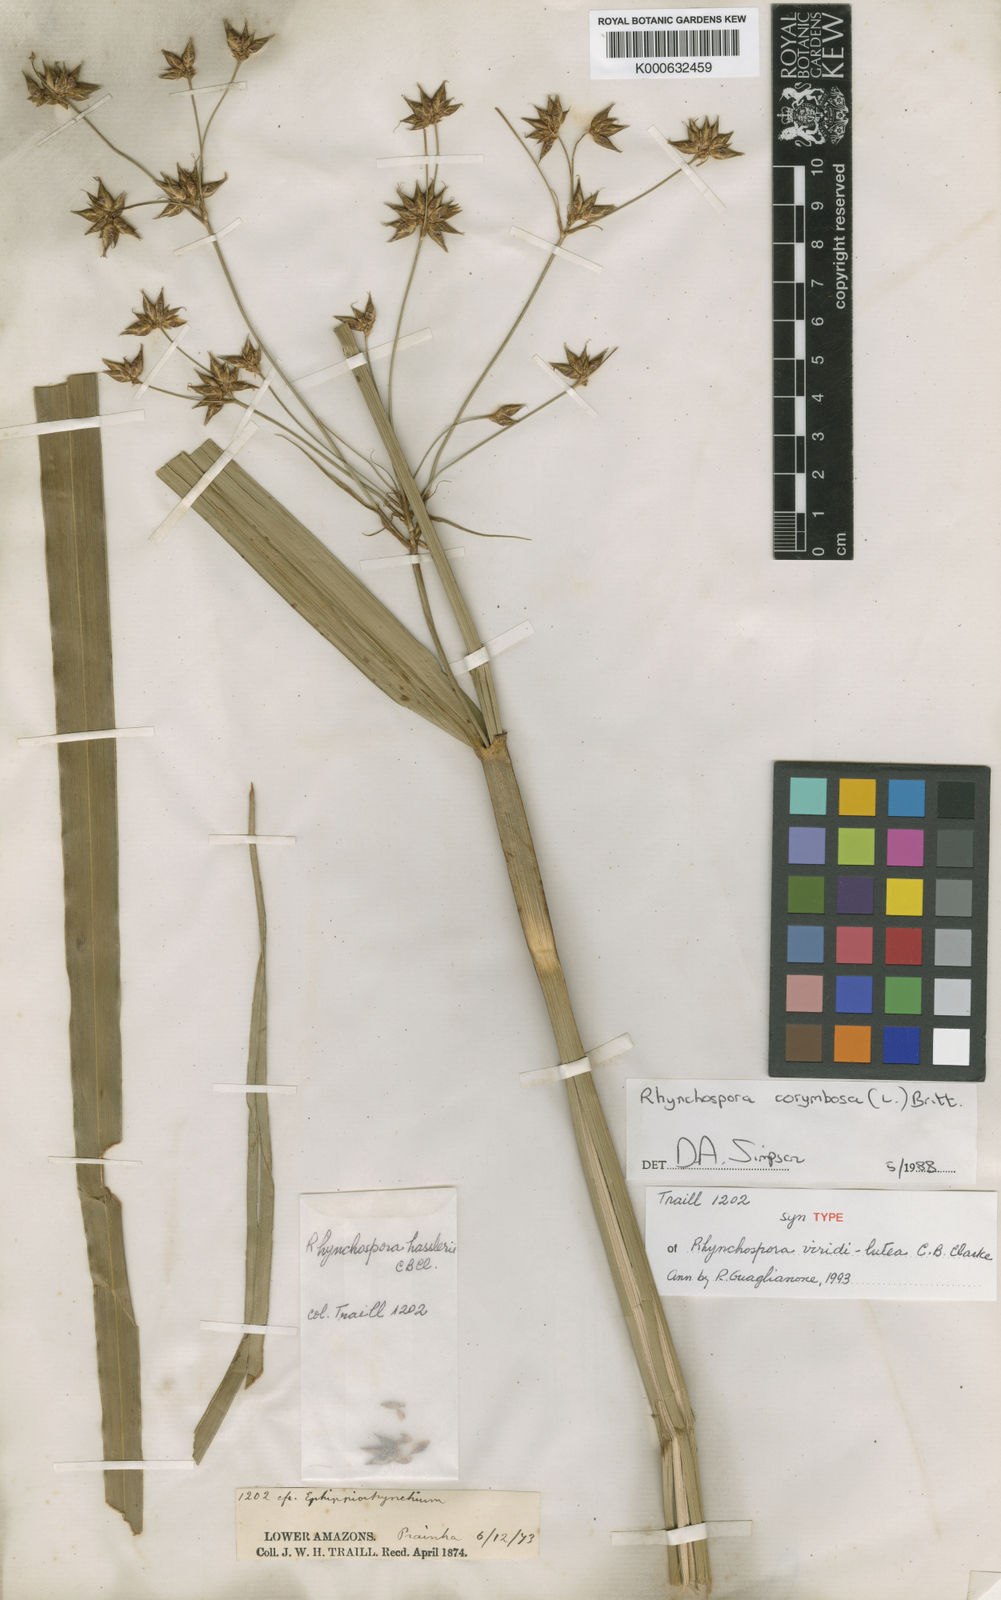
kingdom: Plantae
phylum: Tracheophyta
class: Liliopsida
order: Poales
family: Cyperaceae
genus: Rhynchospora
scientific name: Rhynchospora hassleri
